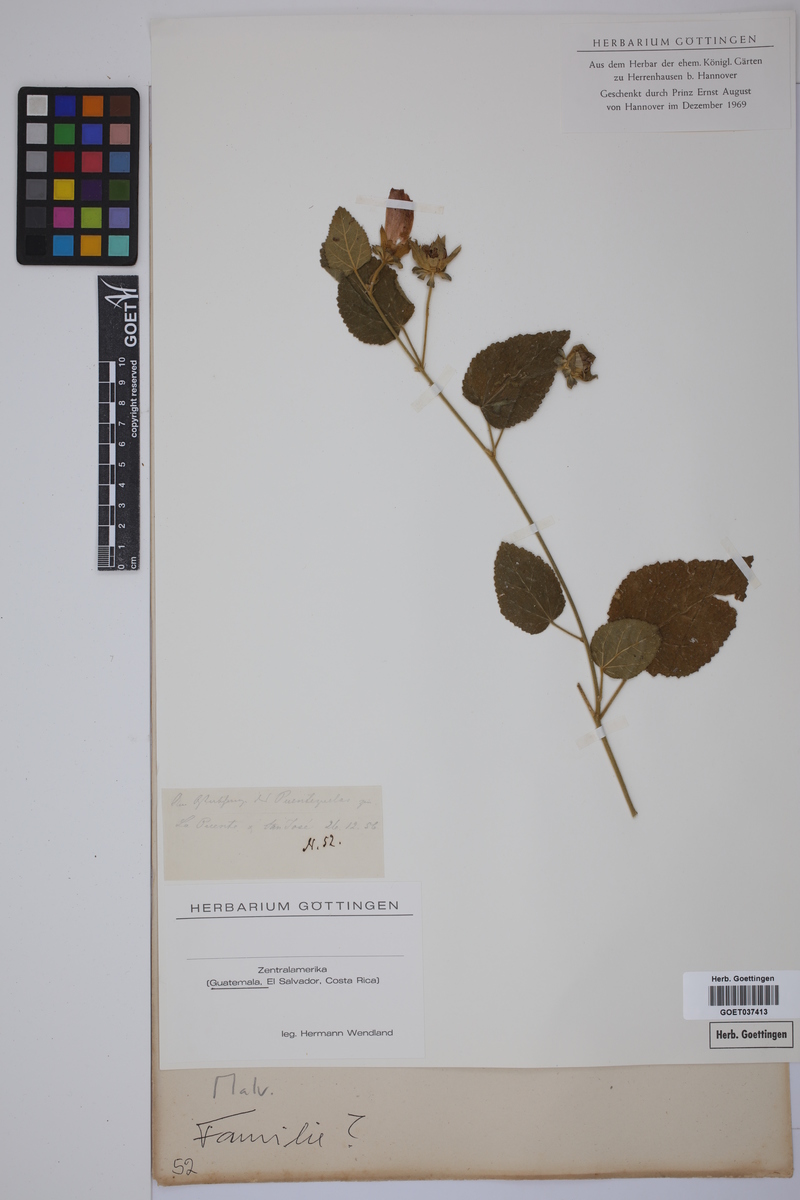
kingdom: Plantae
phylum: Tracheophyta
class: Magnoliopsida
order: Malvales
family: Malvaceae
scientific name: Malvaceae
